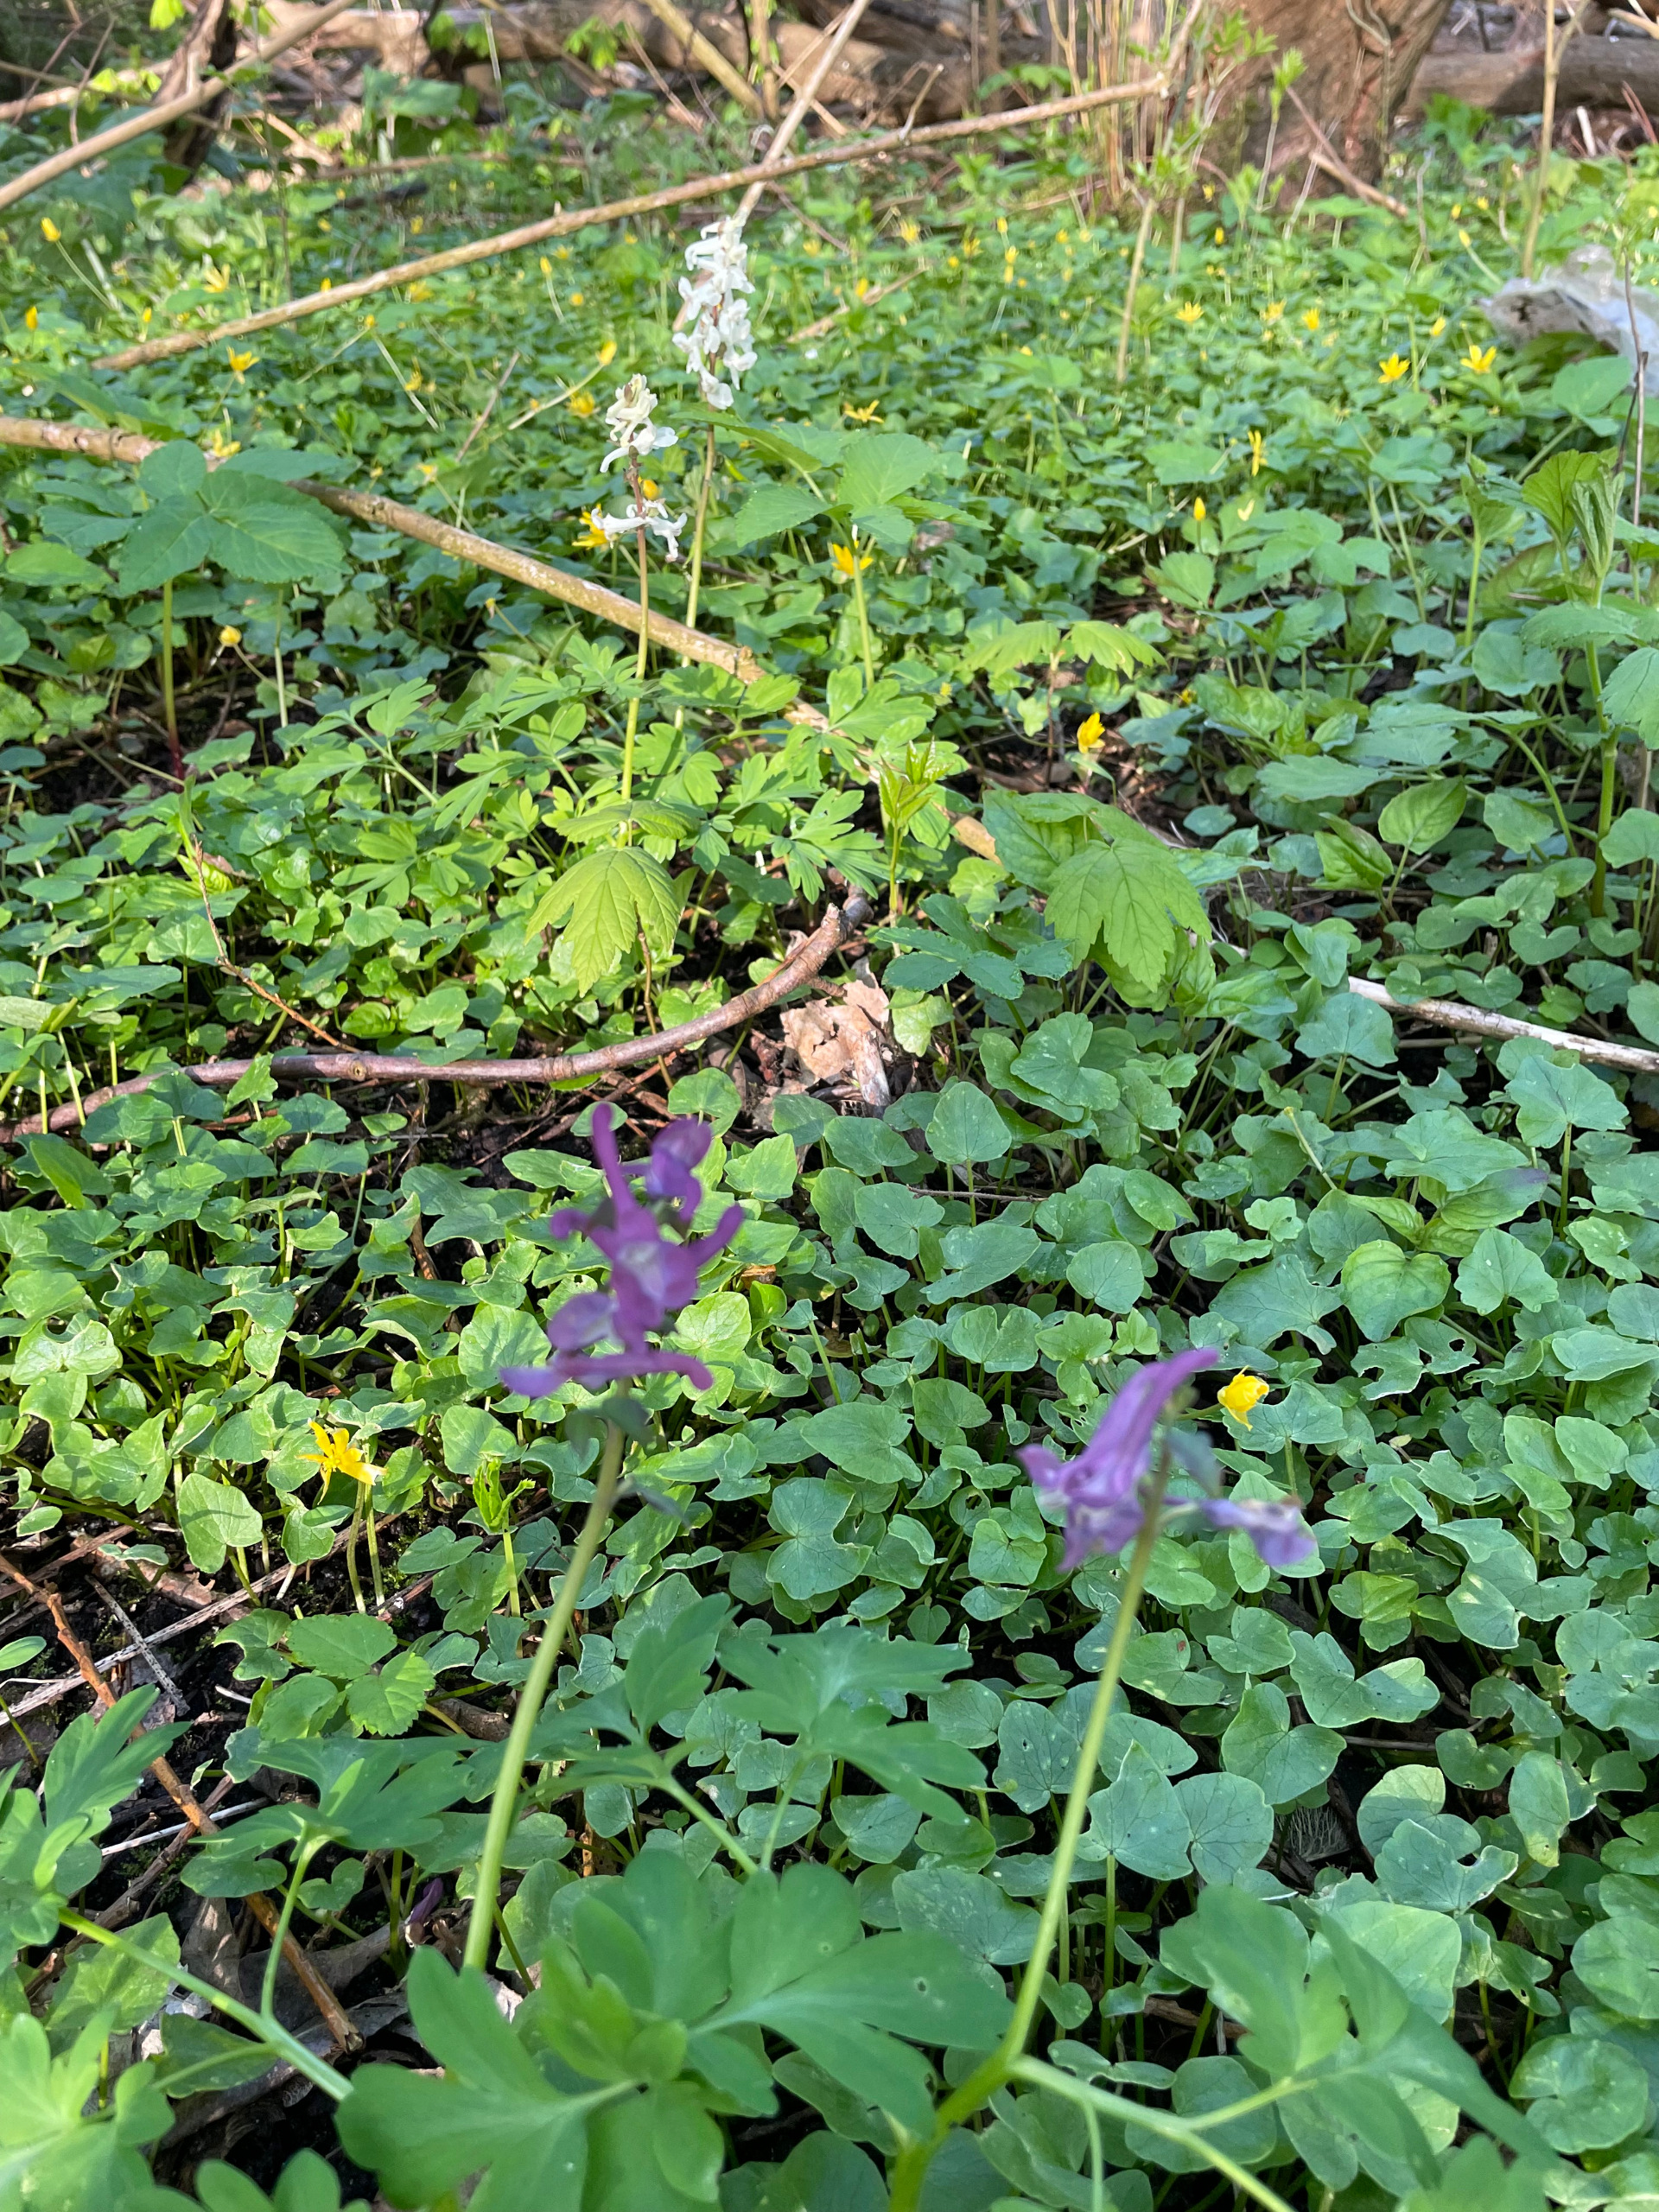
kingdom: Plantae
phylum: Tracheophyta
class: Magnoliopsida
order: Ranunculales
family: Papaveraceae
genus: Corydalis
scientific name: Corydalis cava
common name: Hulrodet lærkespore
